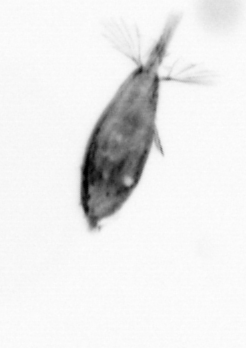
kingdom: Animalia
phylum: Arthropoda
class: Maxillopoda
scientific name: Maxillopoda
